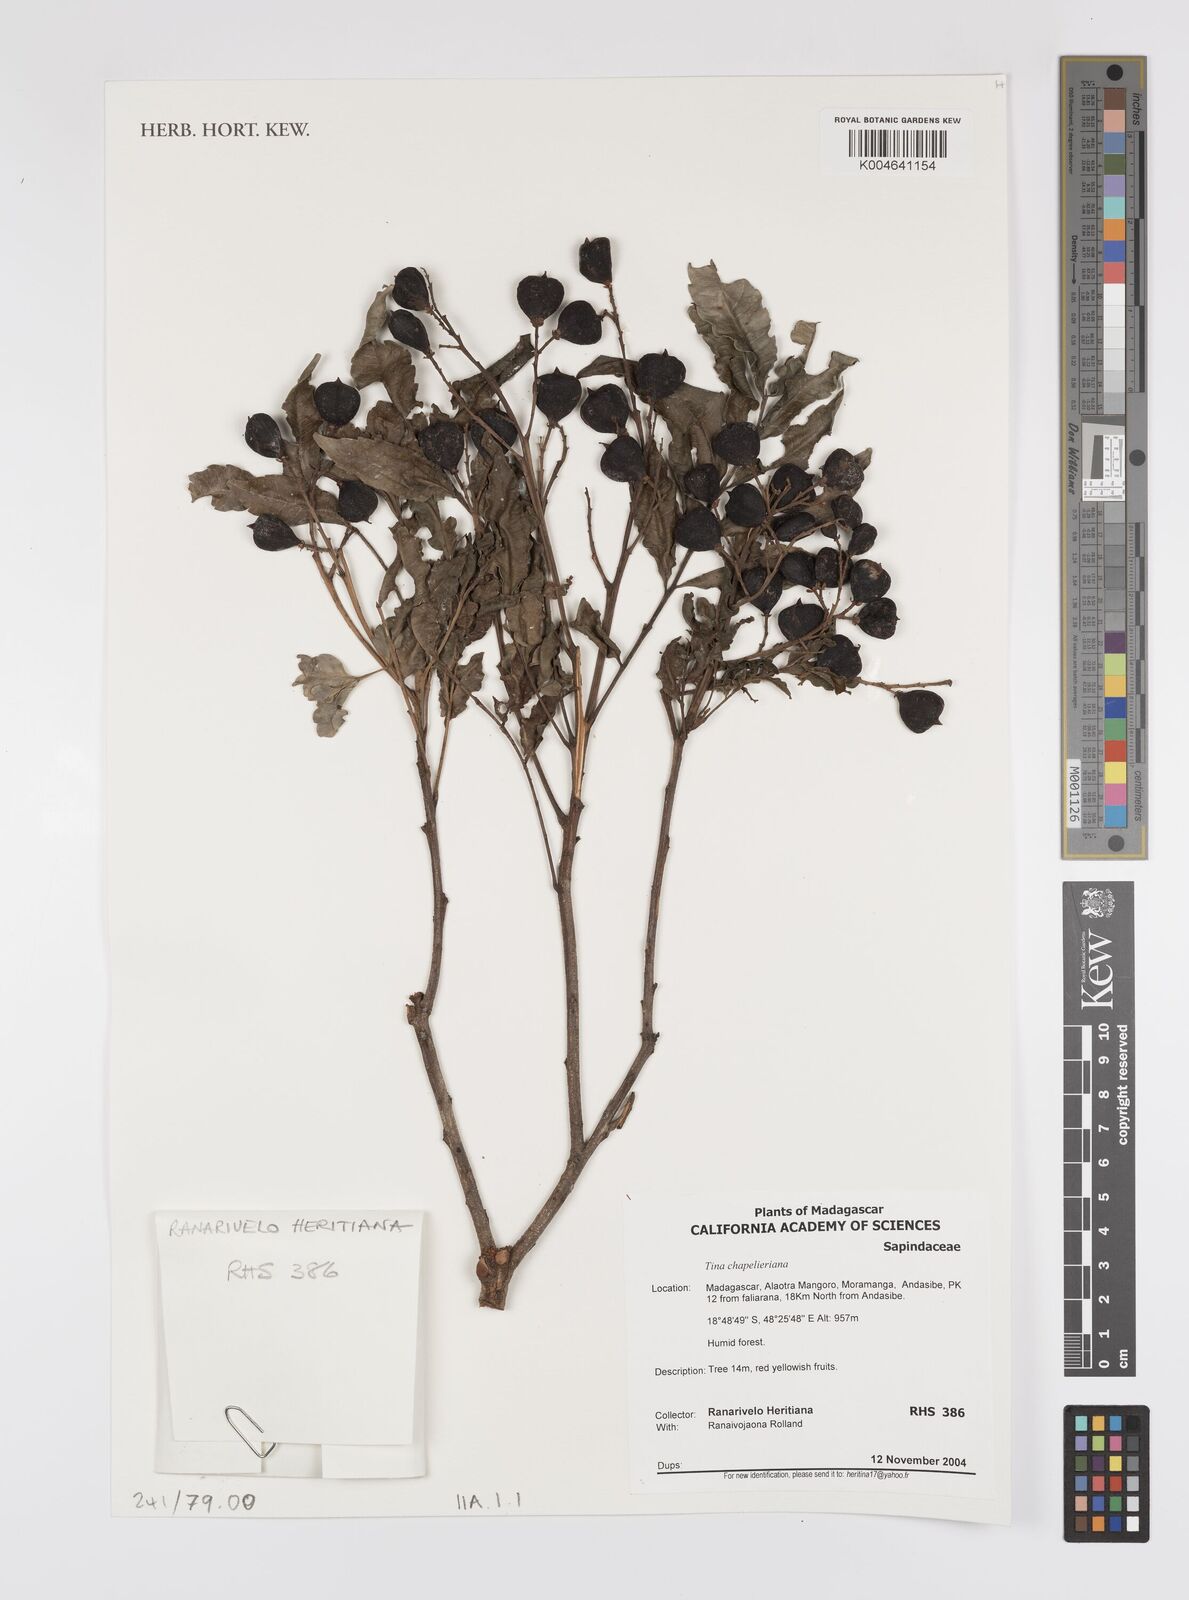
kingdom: Plantae
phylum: Tracheophyta
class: Magnoliopsida
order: Sapindales
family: Sapindaceae
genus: Tina
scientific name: Tina chapelieriana
